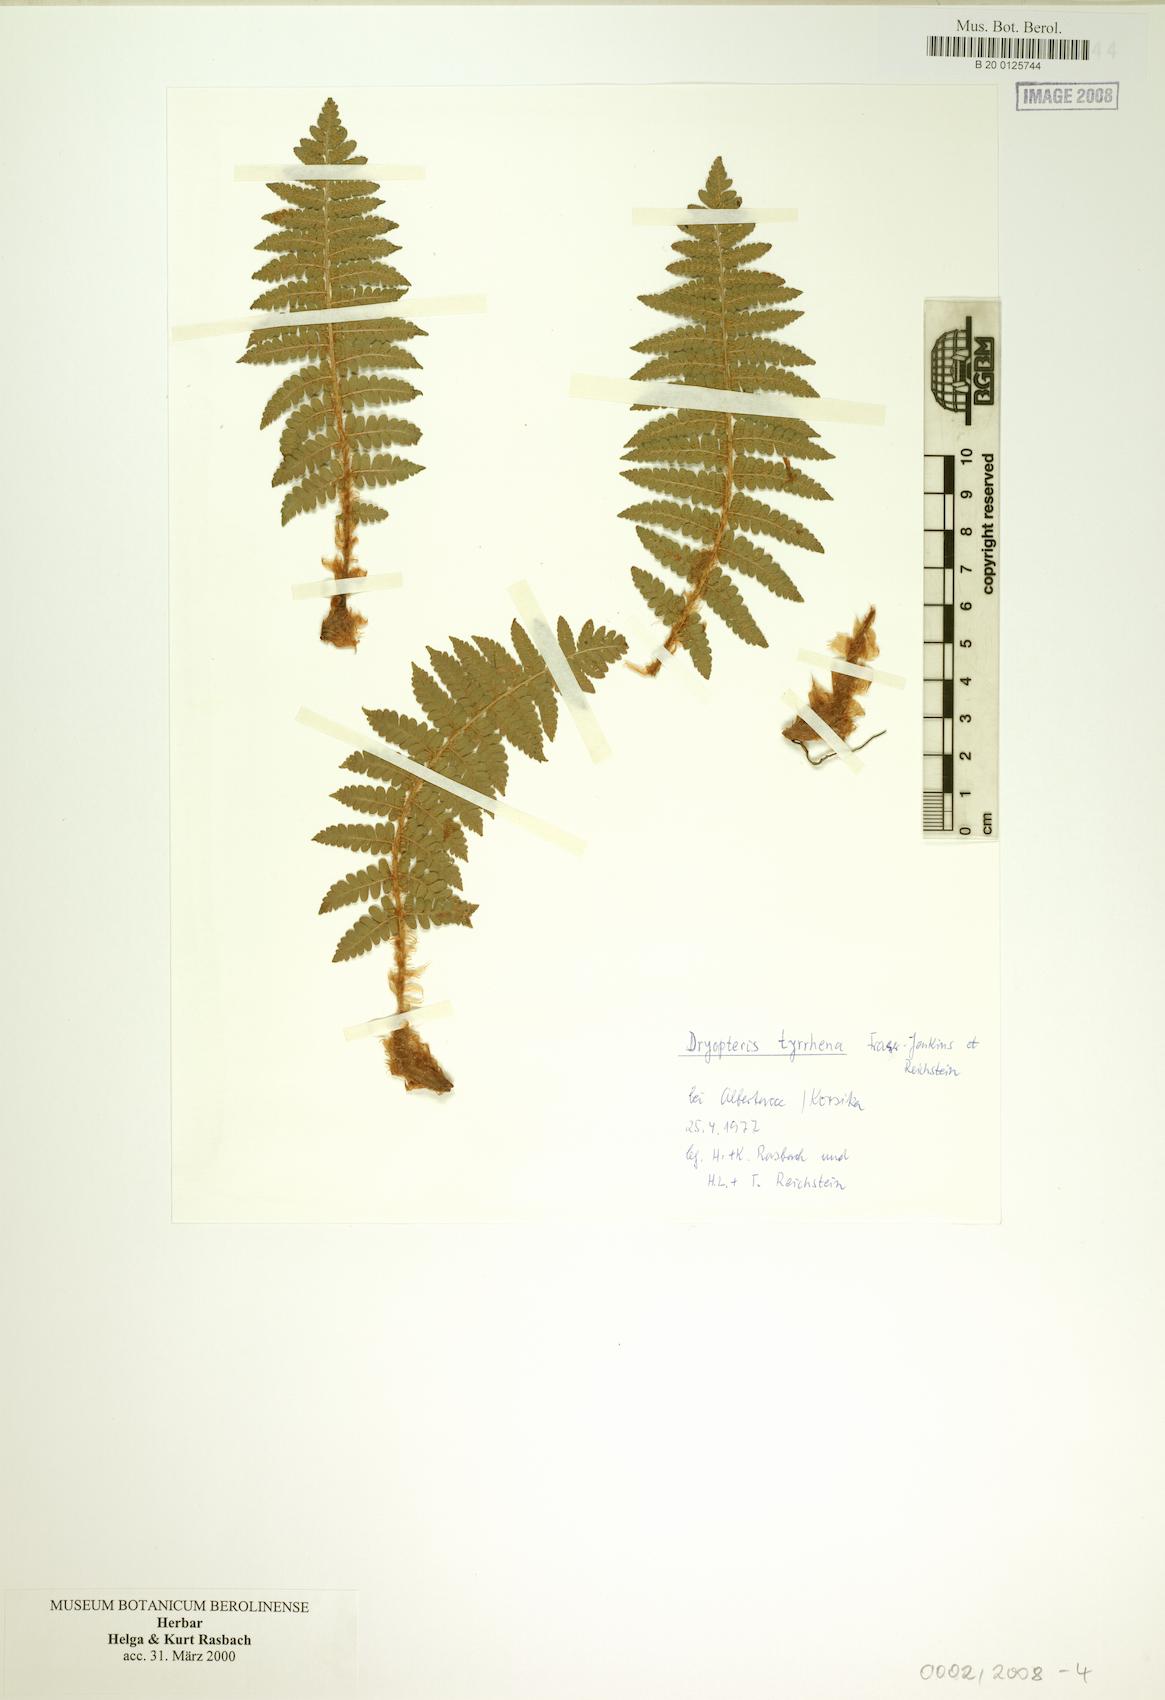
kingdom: Plantae
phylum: Tracheophyta
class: Polypodiopsida
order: Polypodiales
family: Dryopteridaceae
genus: Dryopteris
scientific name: Dryopteris tyrrhena
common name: Mediterranean buckler-fern
